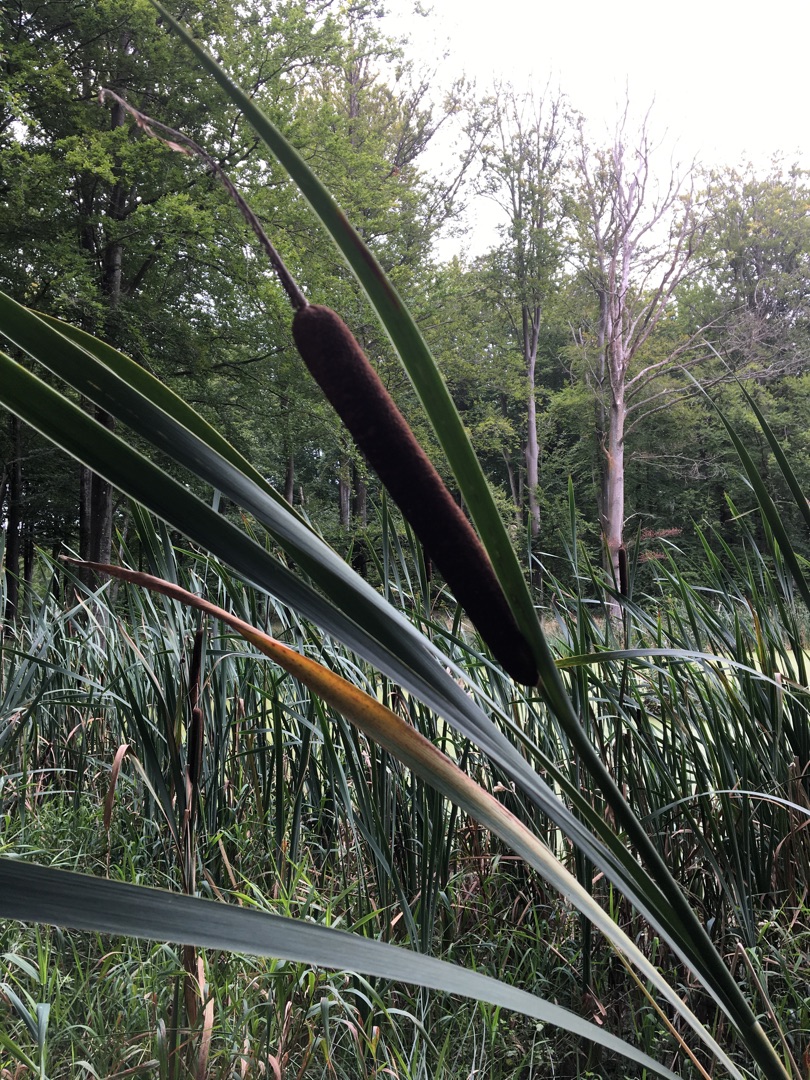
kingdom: Plantae
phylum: Tracheophyta
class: Liliopsida
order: Poales
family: Typhaceae
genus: Typha
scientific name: Typha latifolia
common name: Bredbladet dunhammer
